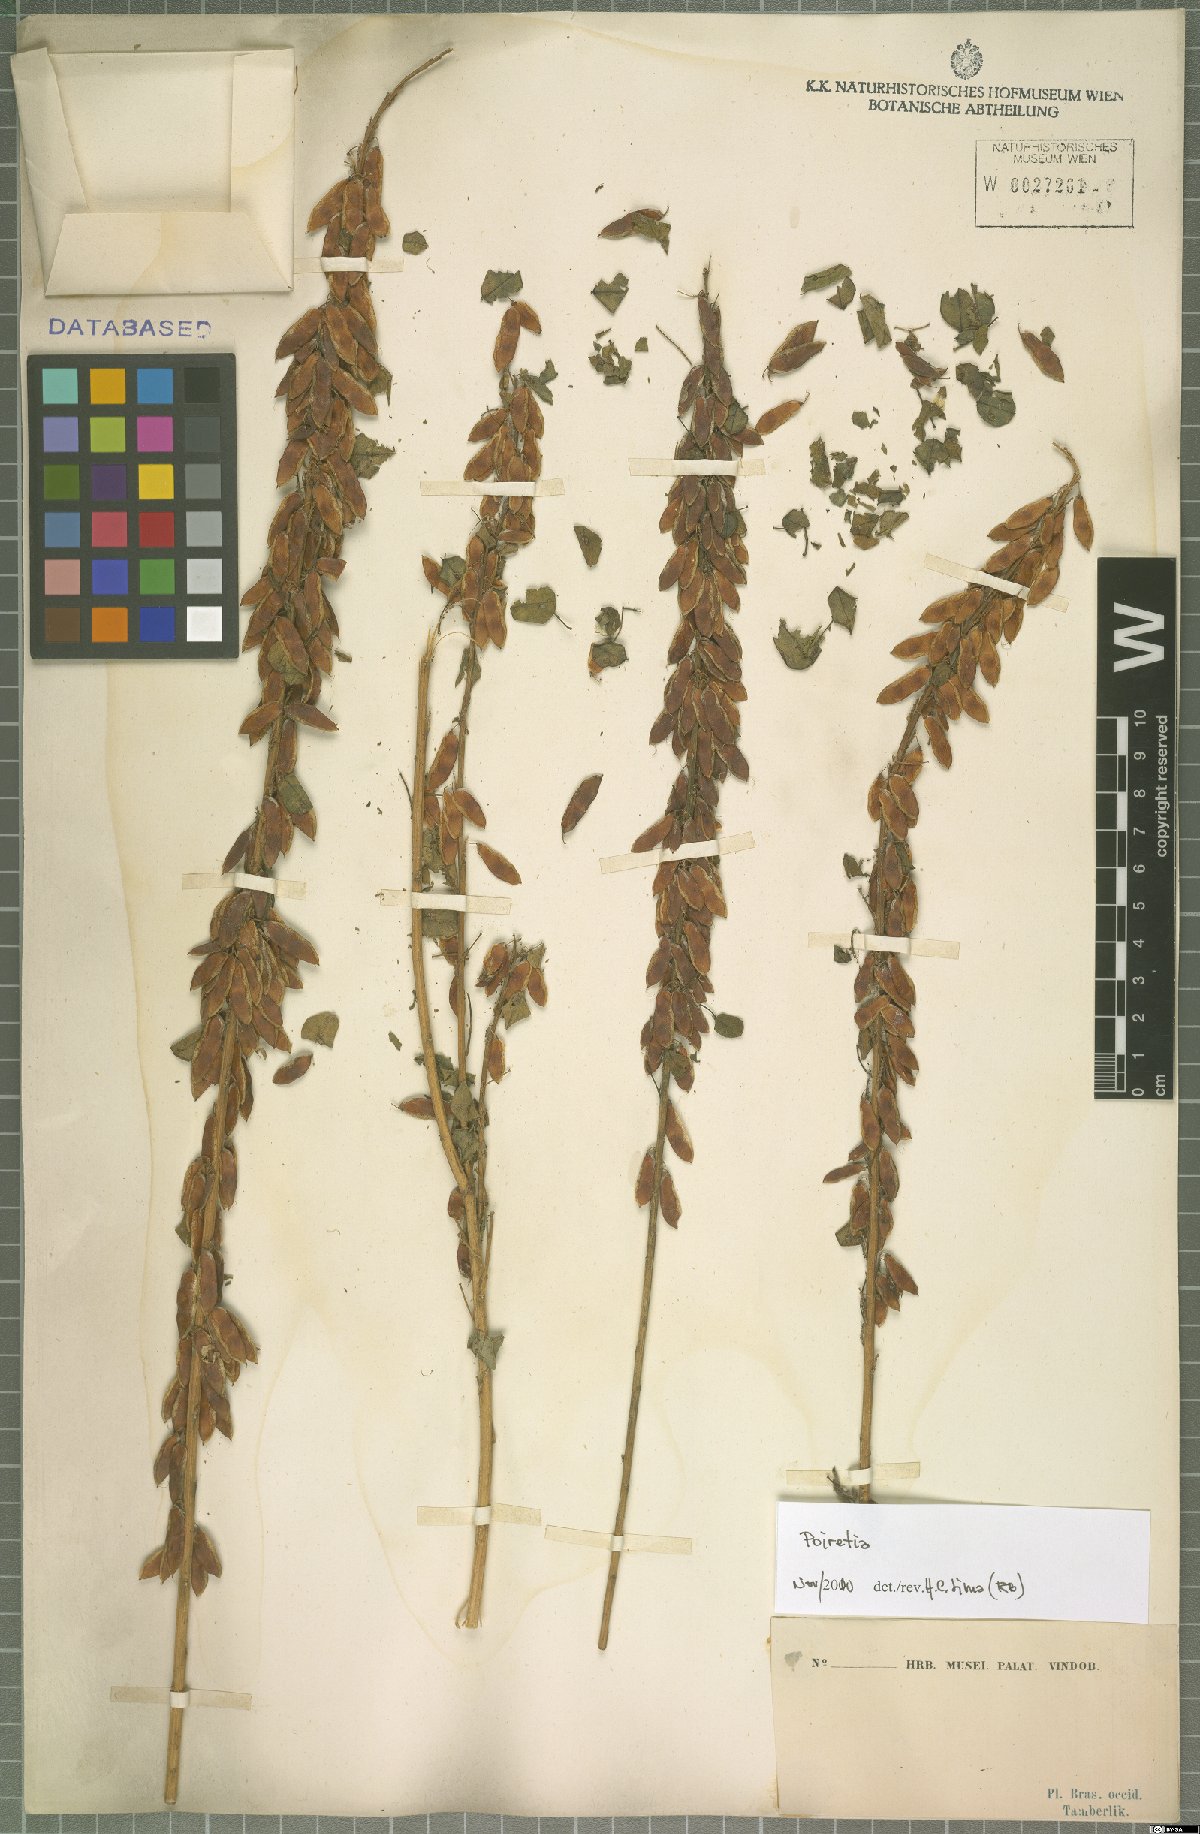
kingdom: Plantae
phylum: Tracheophyta
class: Magnoliopsida
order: Fabales
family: Fabaceae
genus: Poiretia
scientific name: Poiretia
